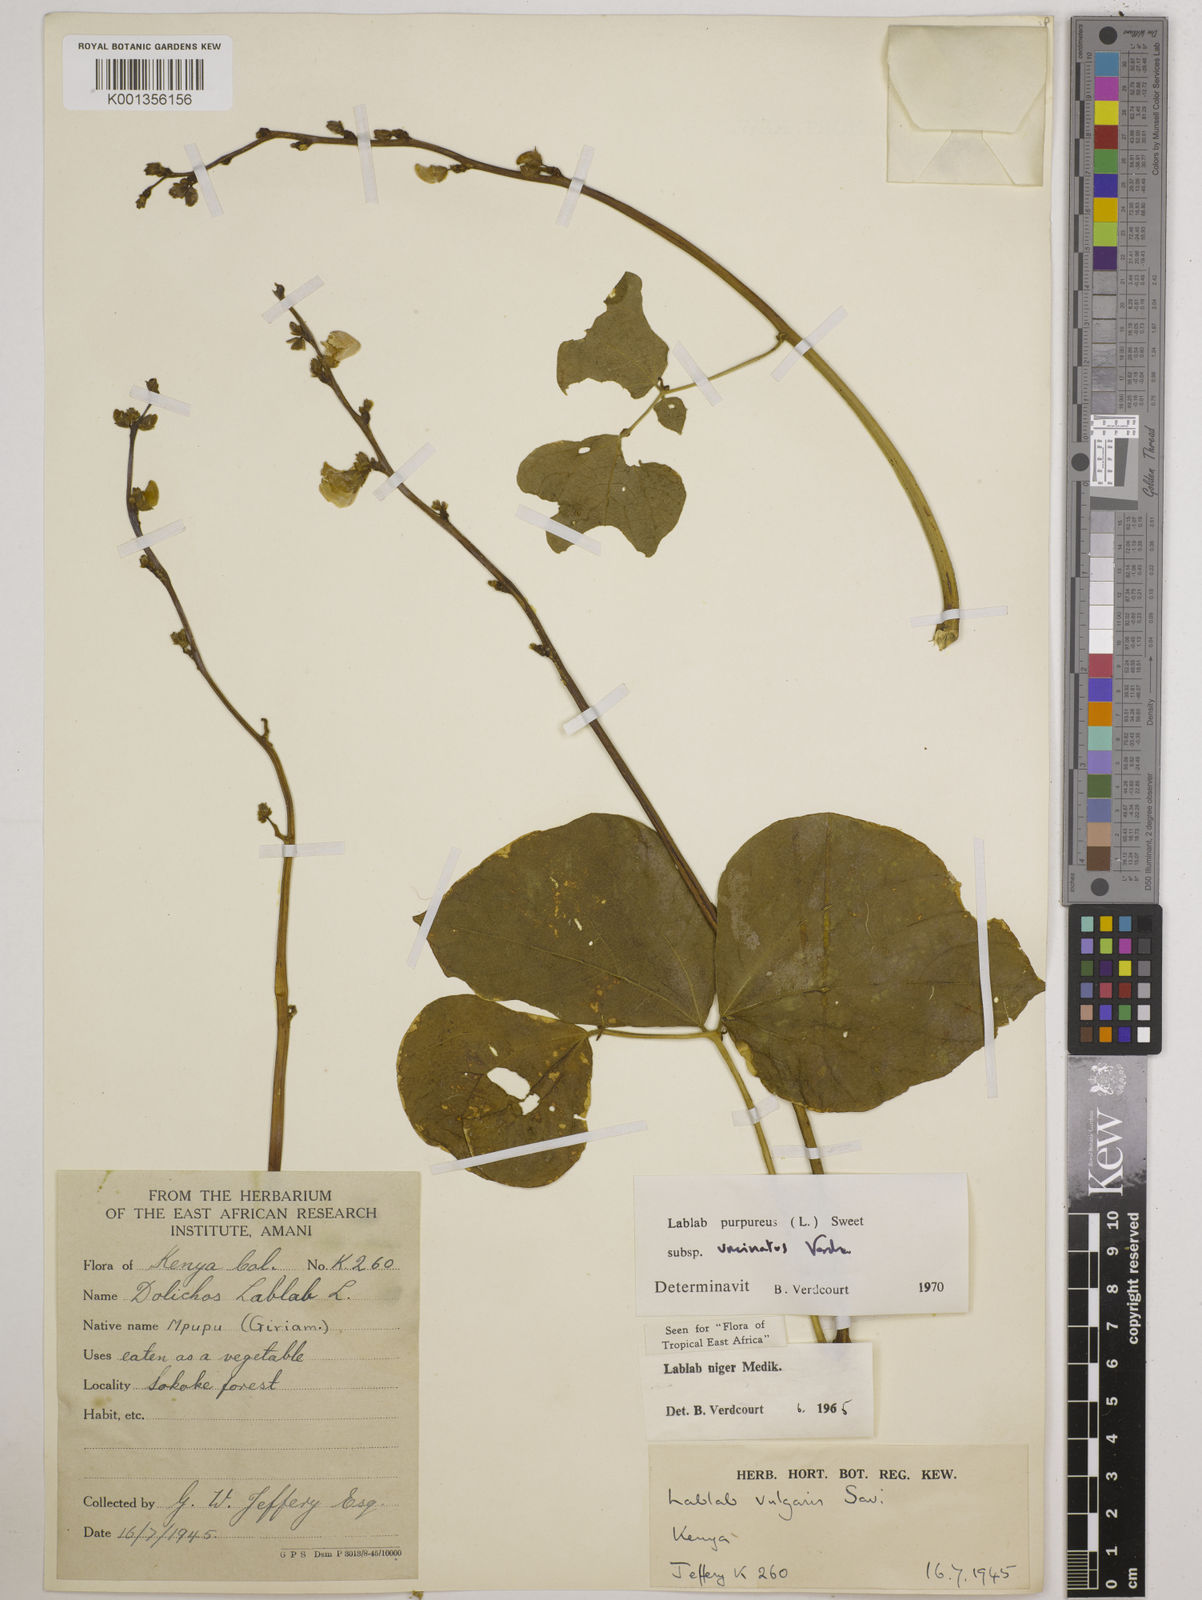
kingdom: Plantae
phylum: Tracheophyta
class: Magnoliopsida
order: Fabales
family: Fabaceae
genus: Lablab
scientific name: Lablab purpureus
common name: Lablab-bean
